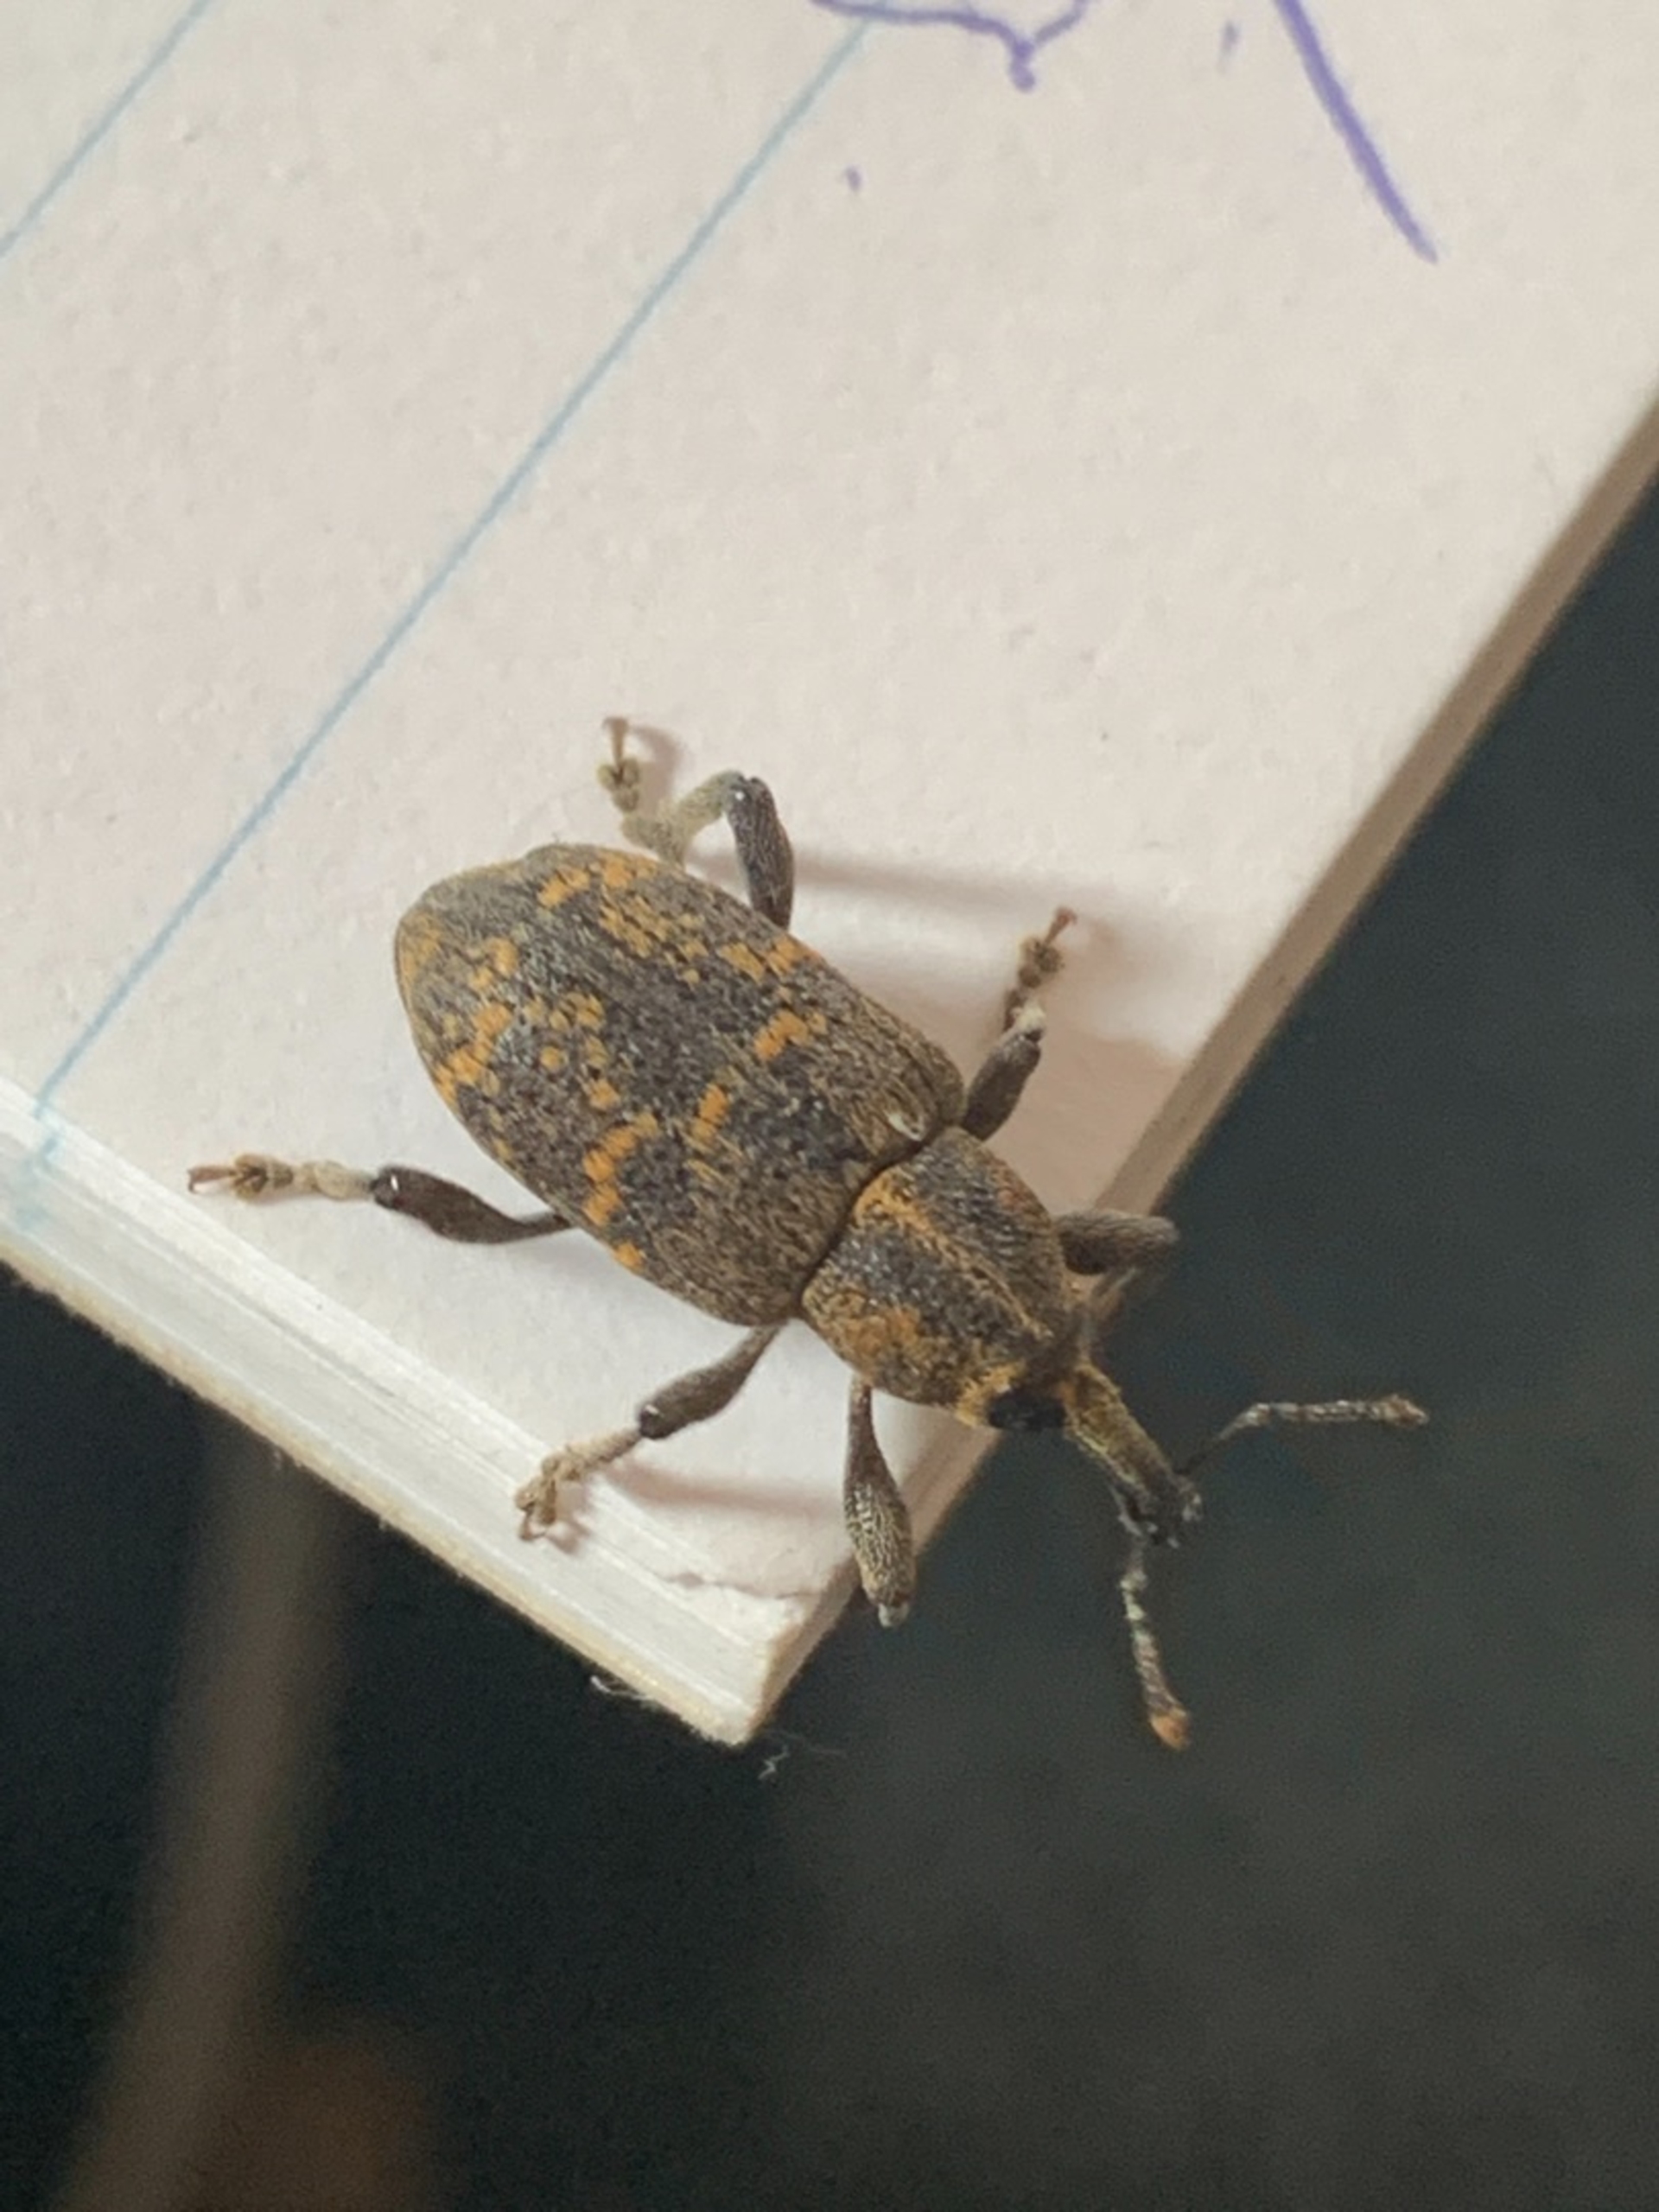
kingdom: Animalia
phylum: Arthropoda
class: Insecta
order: Coleoptera
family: Curculionidae
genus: Hylobius
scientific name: Hylobius abietis
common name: Stor nåletræsnudebille
